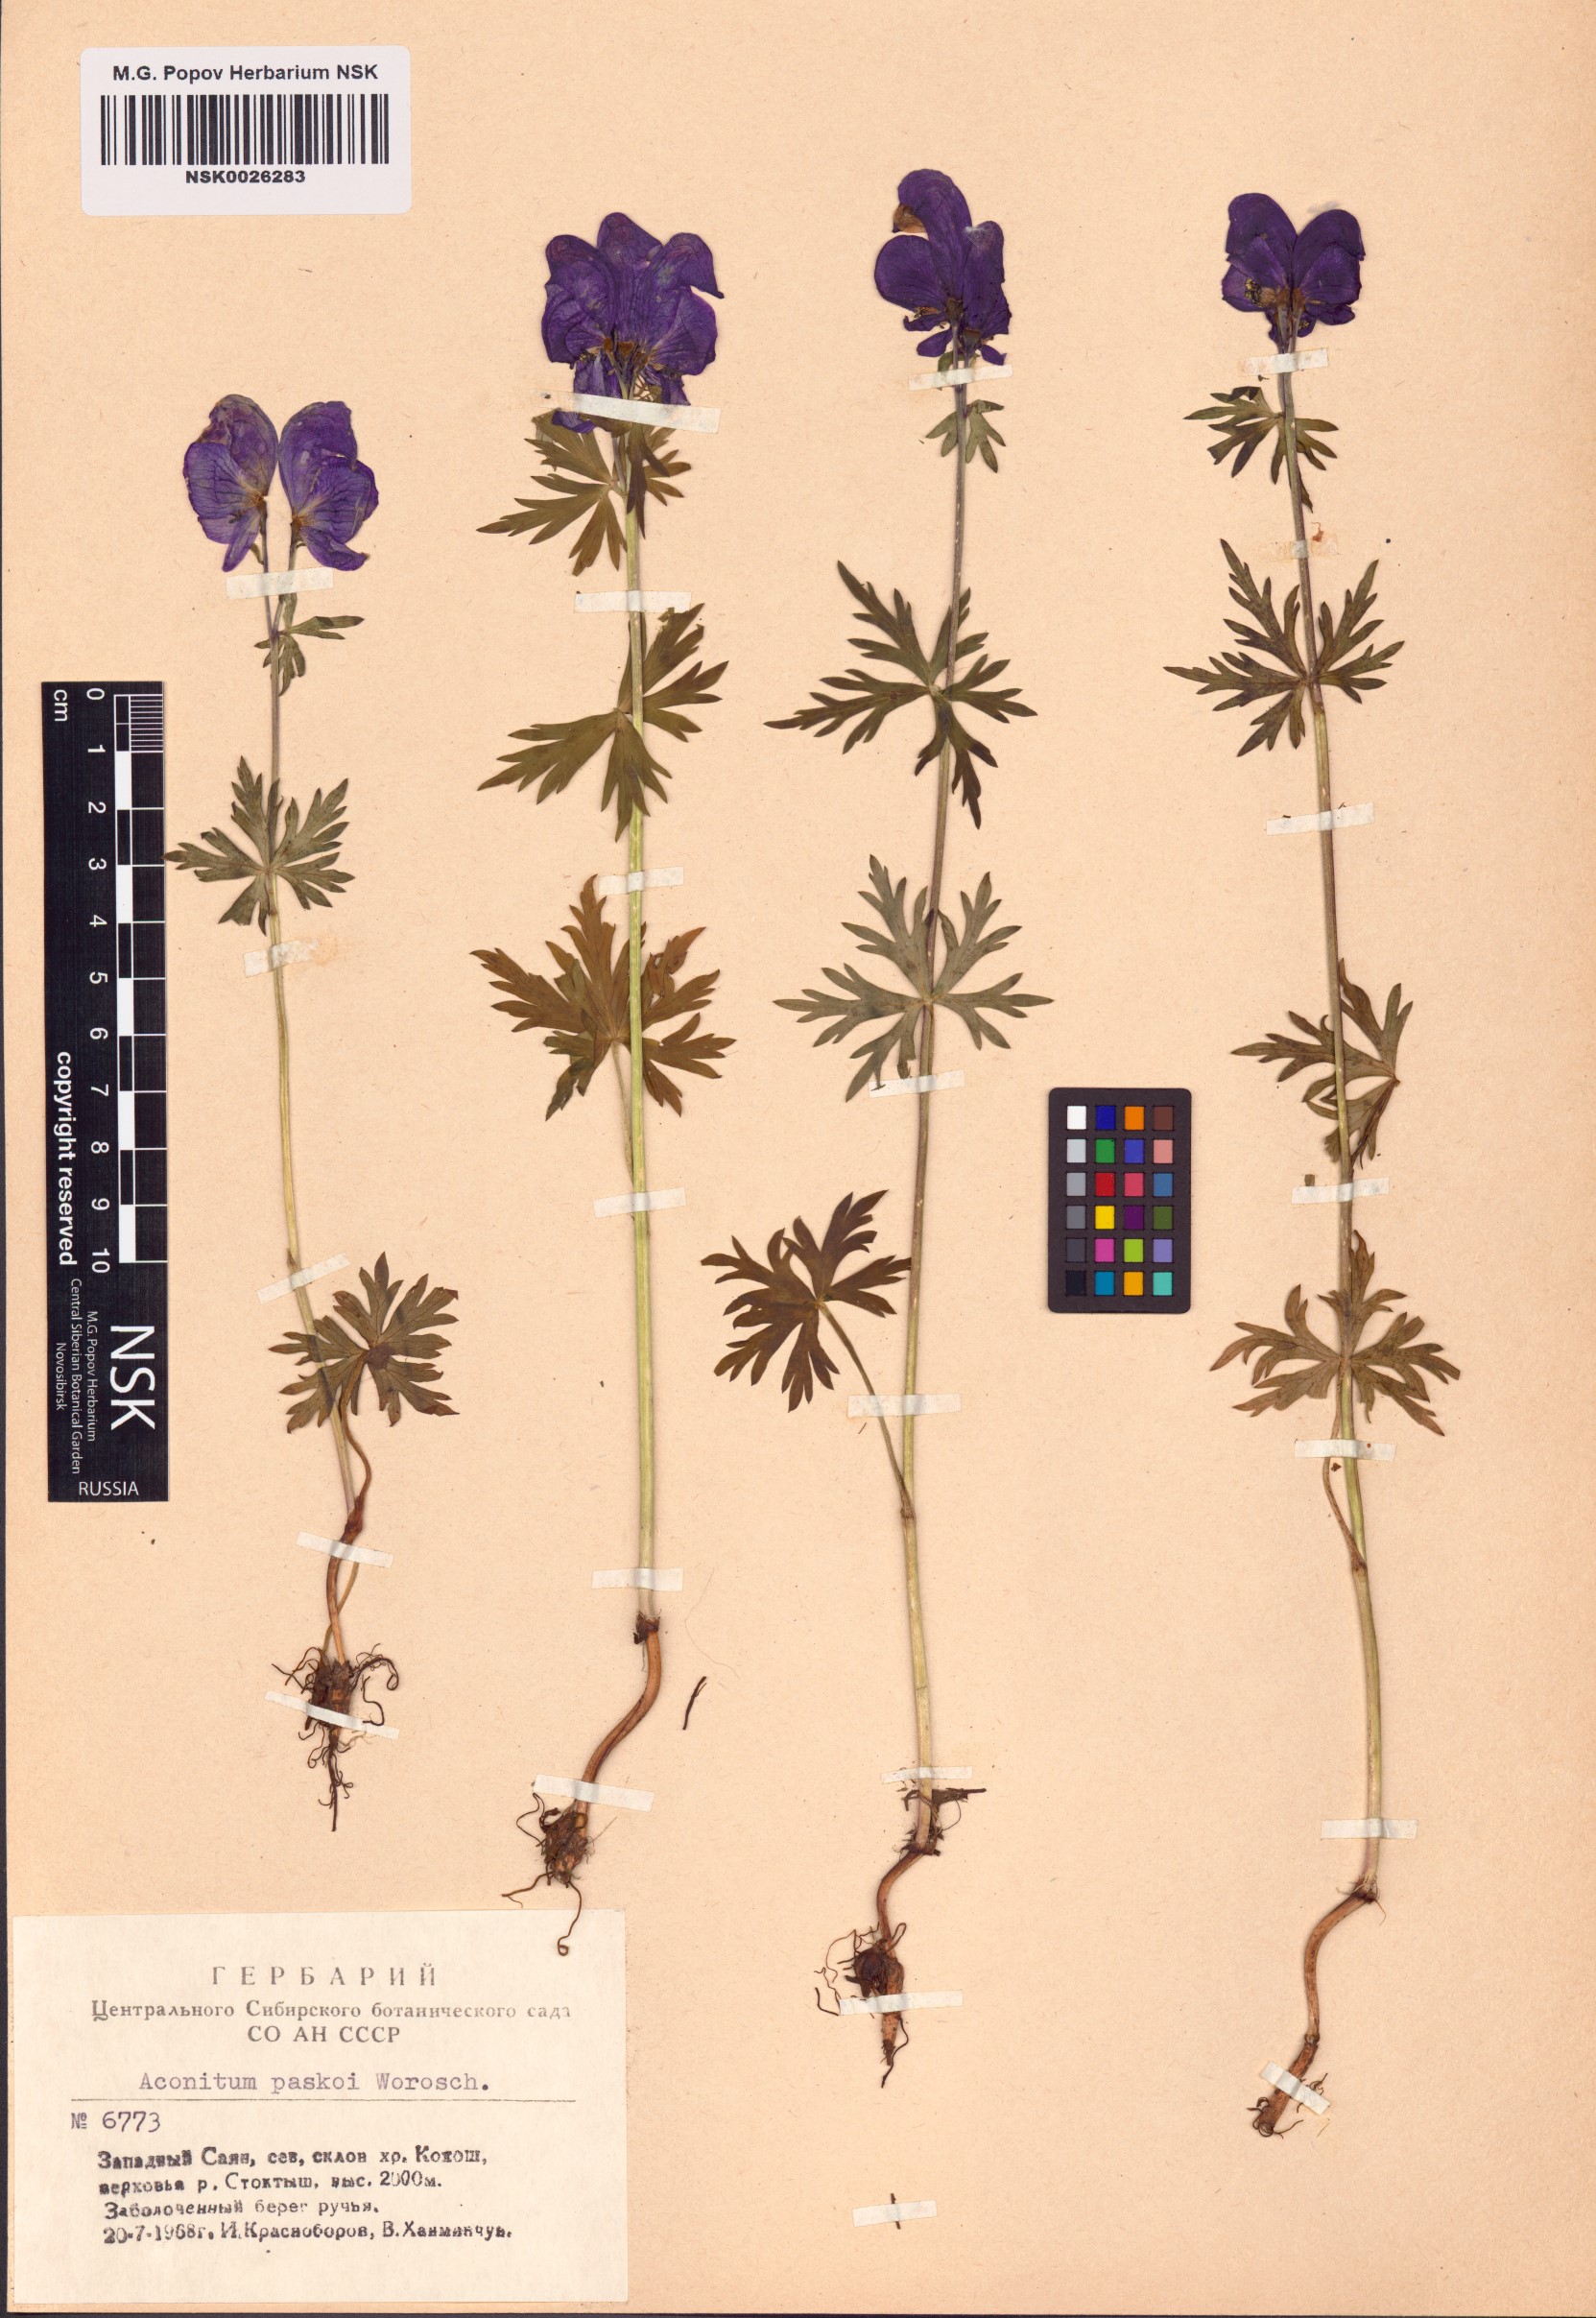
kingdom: Plantae
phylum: Tracheophyta
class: Magnoliopsida
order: Ranunculales
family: Ranunculaceae
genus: Aconitum
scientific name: Aconitum pascoi
